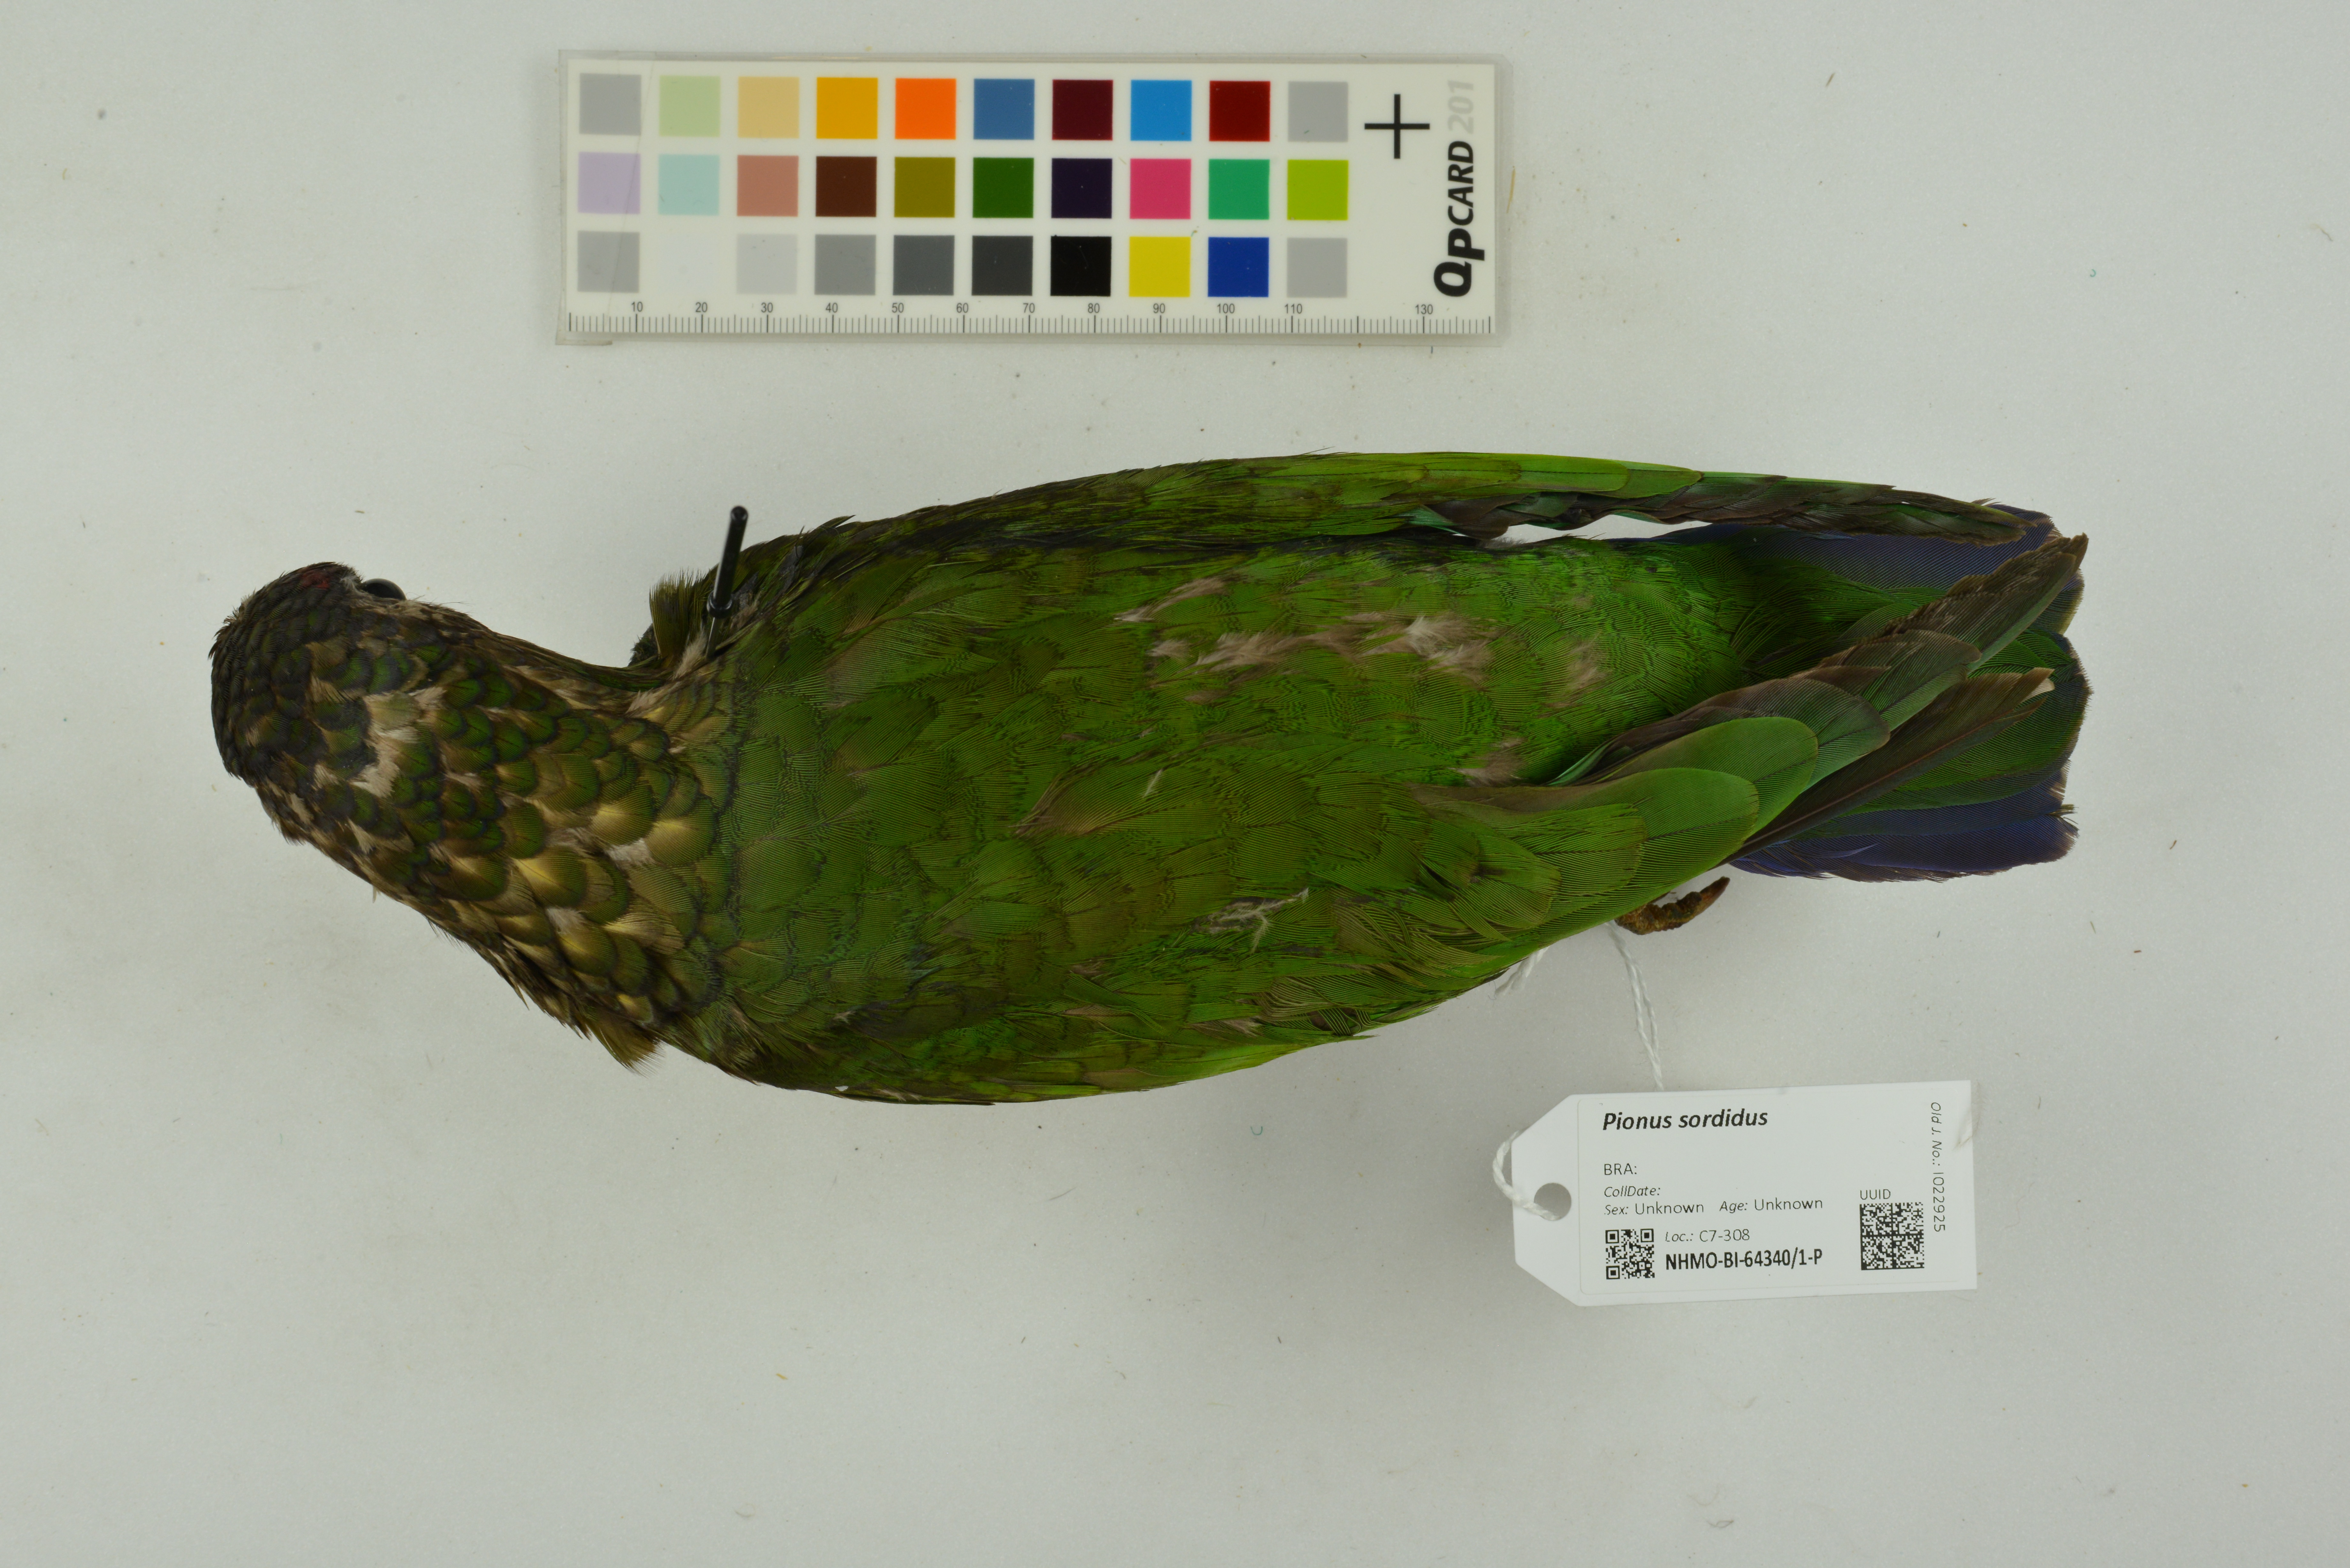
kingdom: Animalia
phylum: Chordata
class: Aves
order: Psittaciformes
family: Psittacidae
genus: Pionus
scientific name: Pionus sordidus
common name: Red-billed parrot
